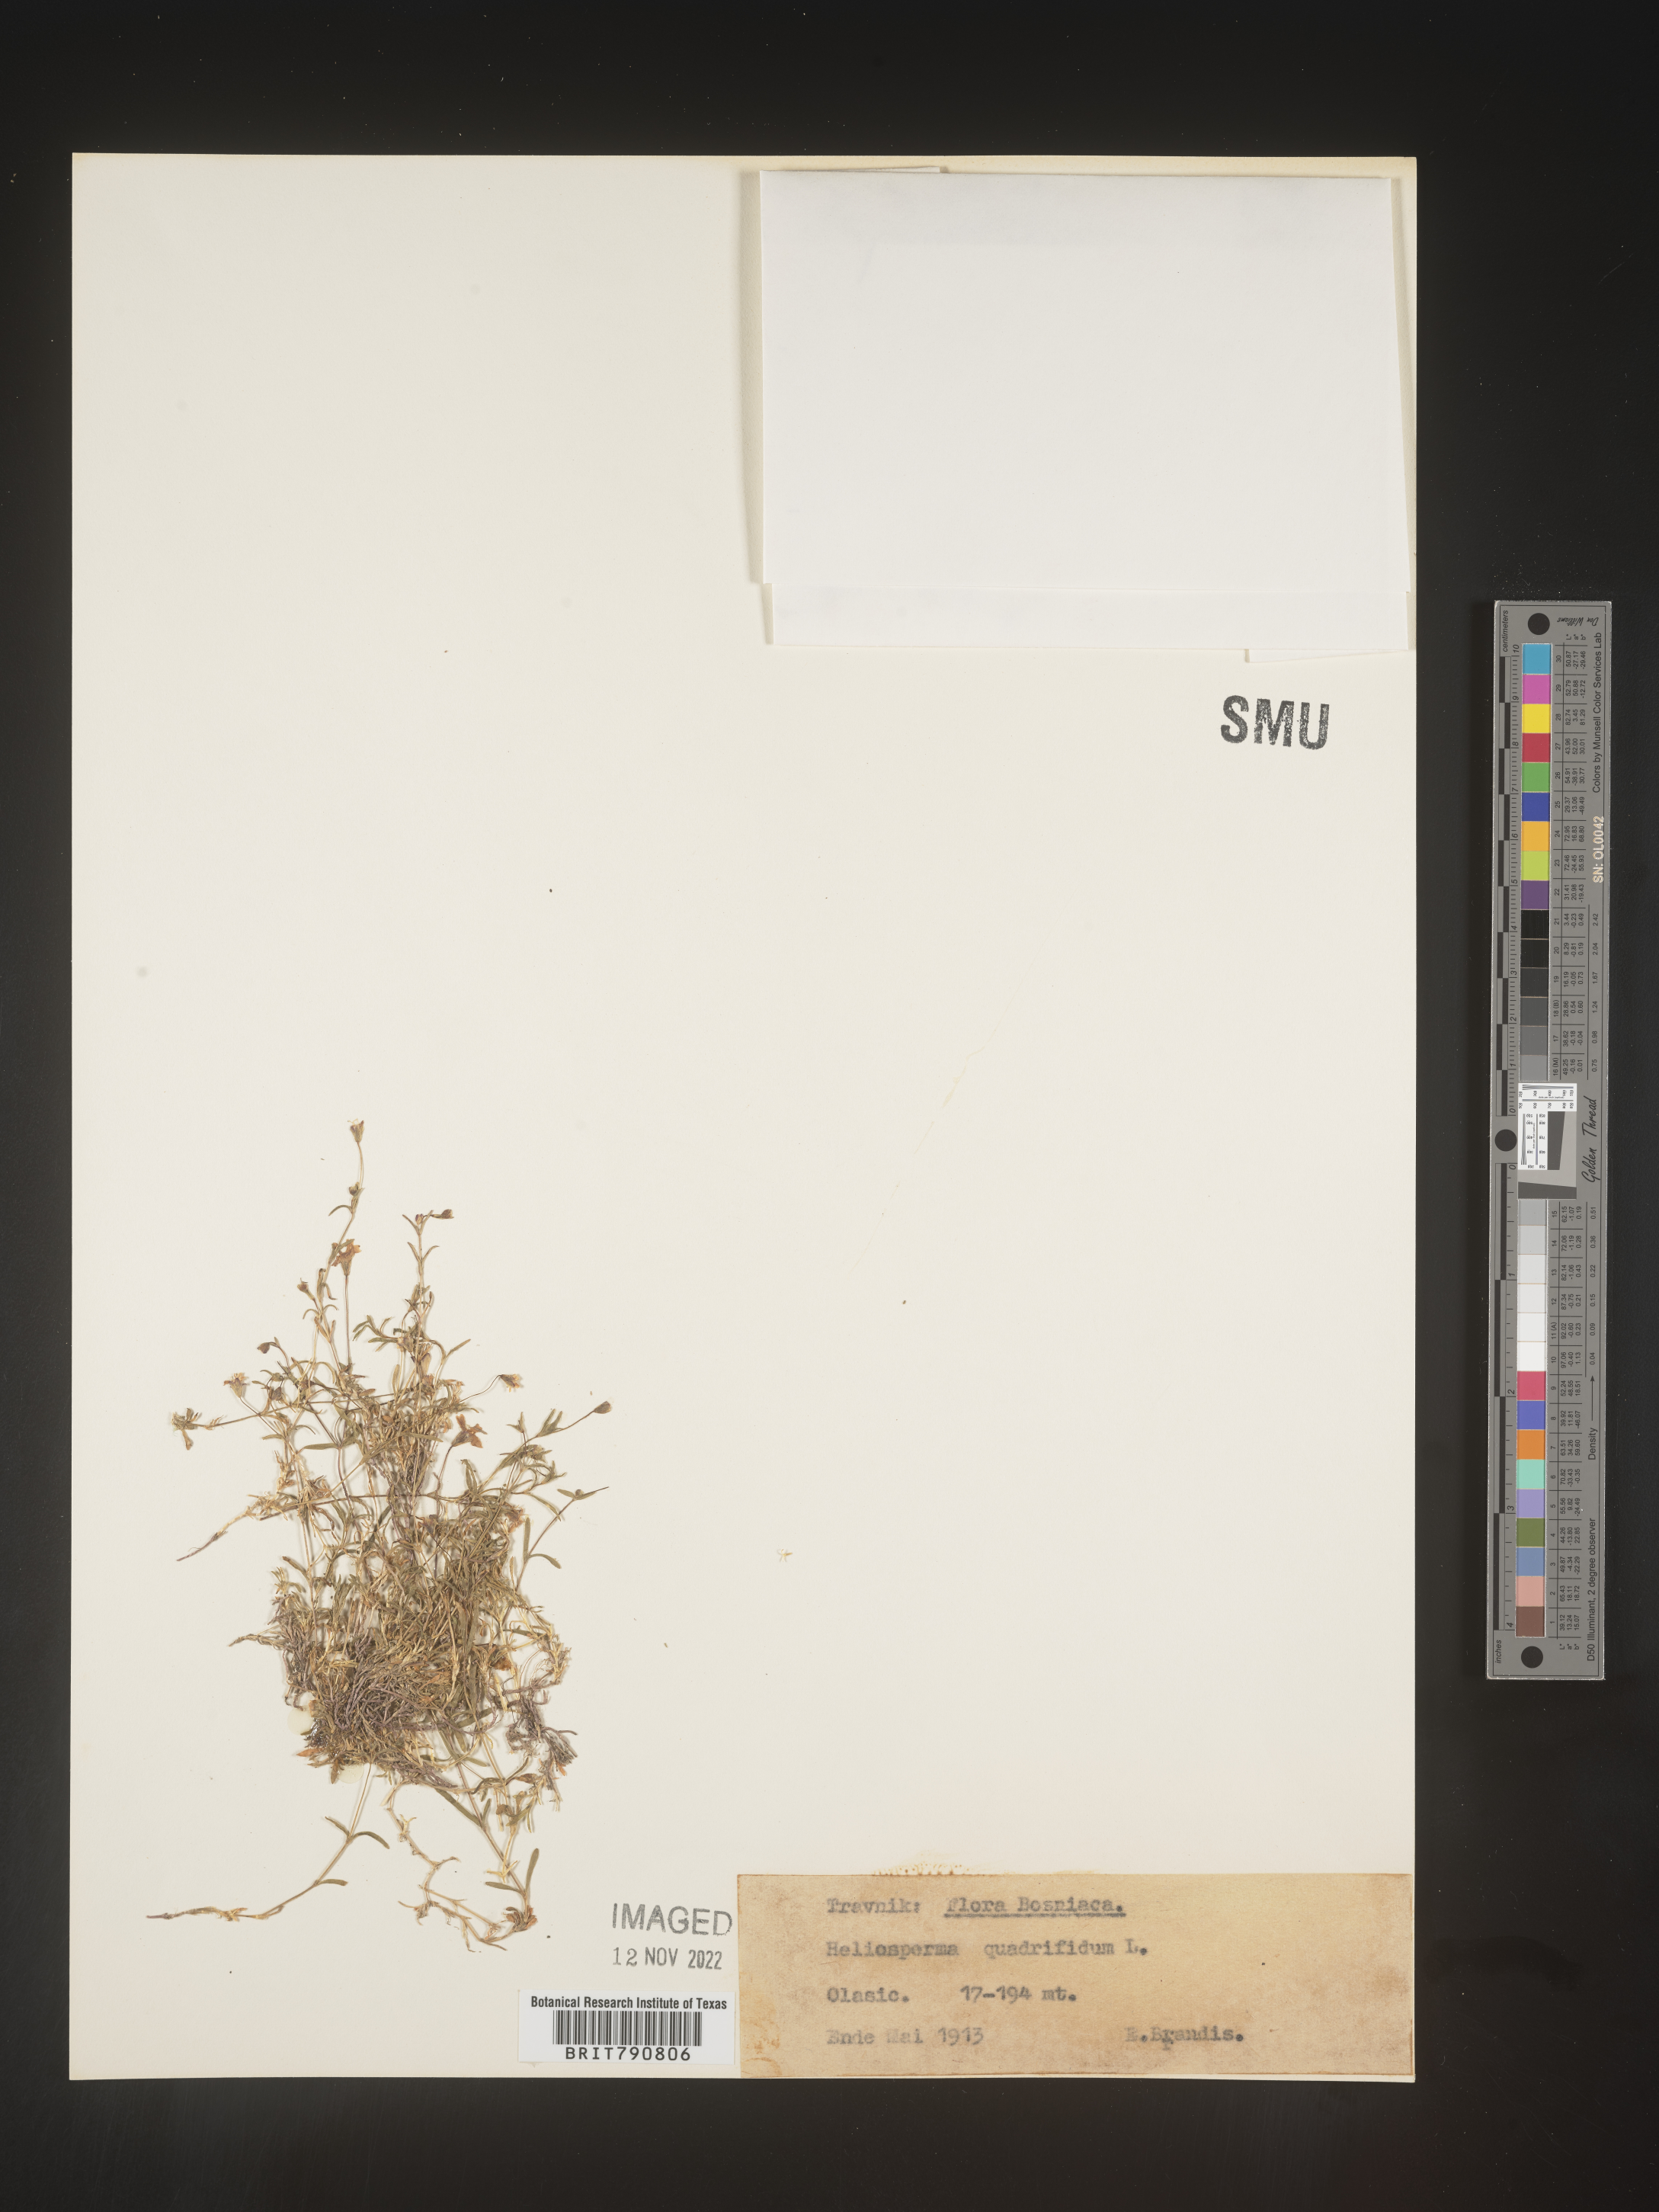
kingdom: Plantae
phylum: Tracheophyta
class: Magnoliopsida
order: Caryophyllales
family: Caryophyllaceae
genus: Heliosperma
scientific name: Heliosperma
